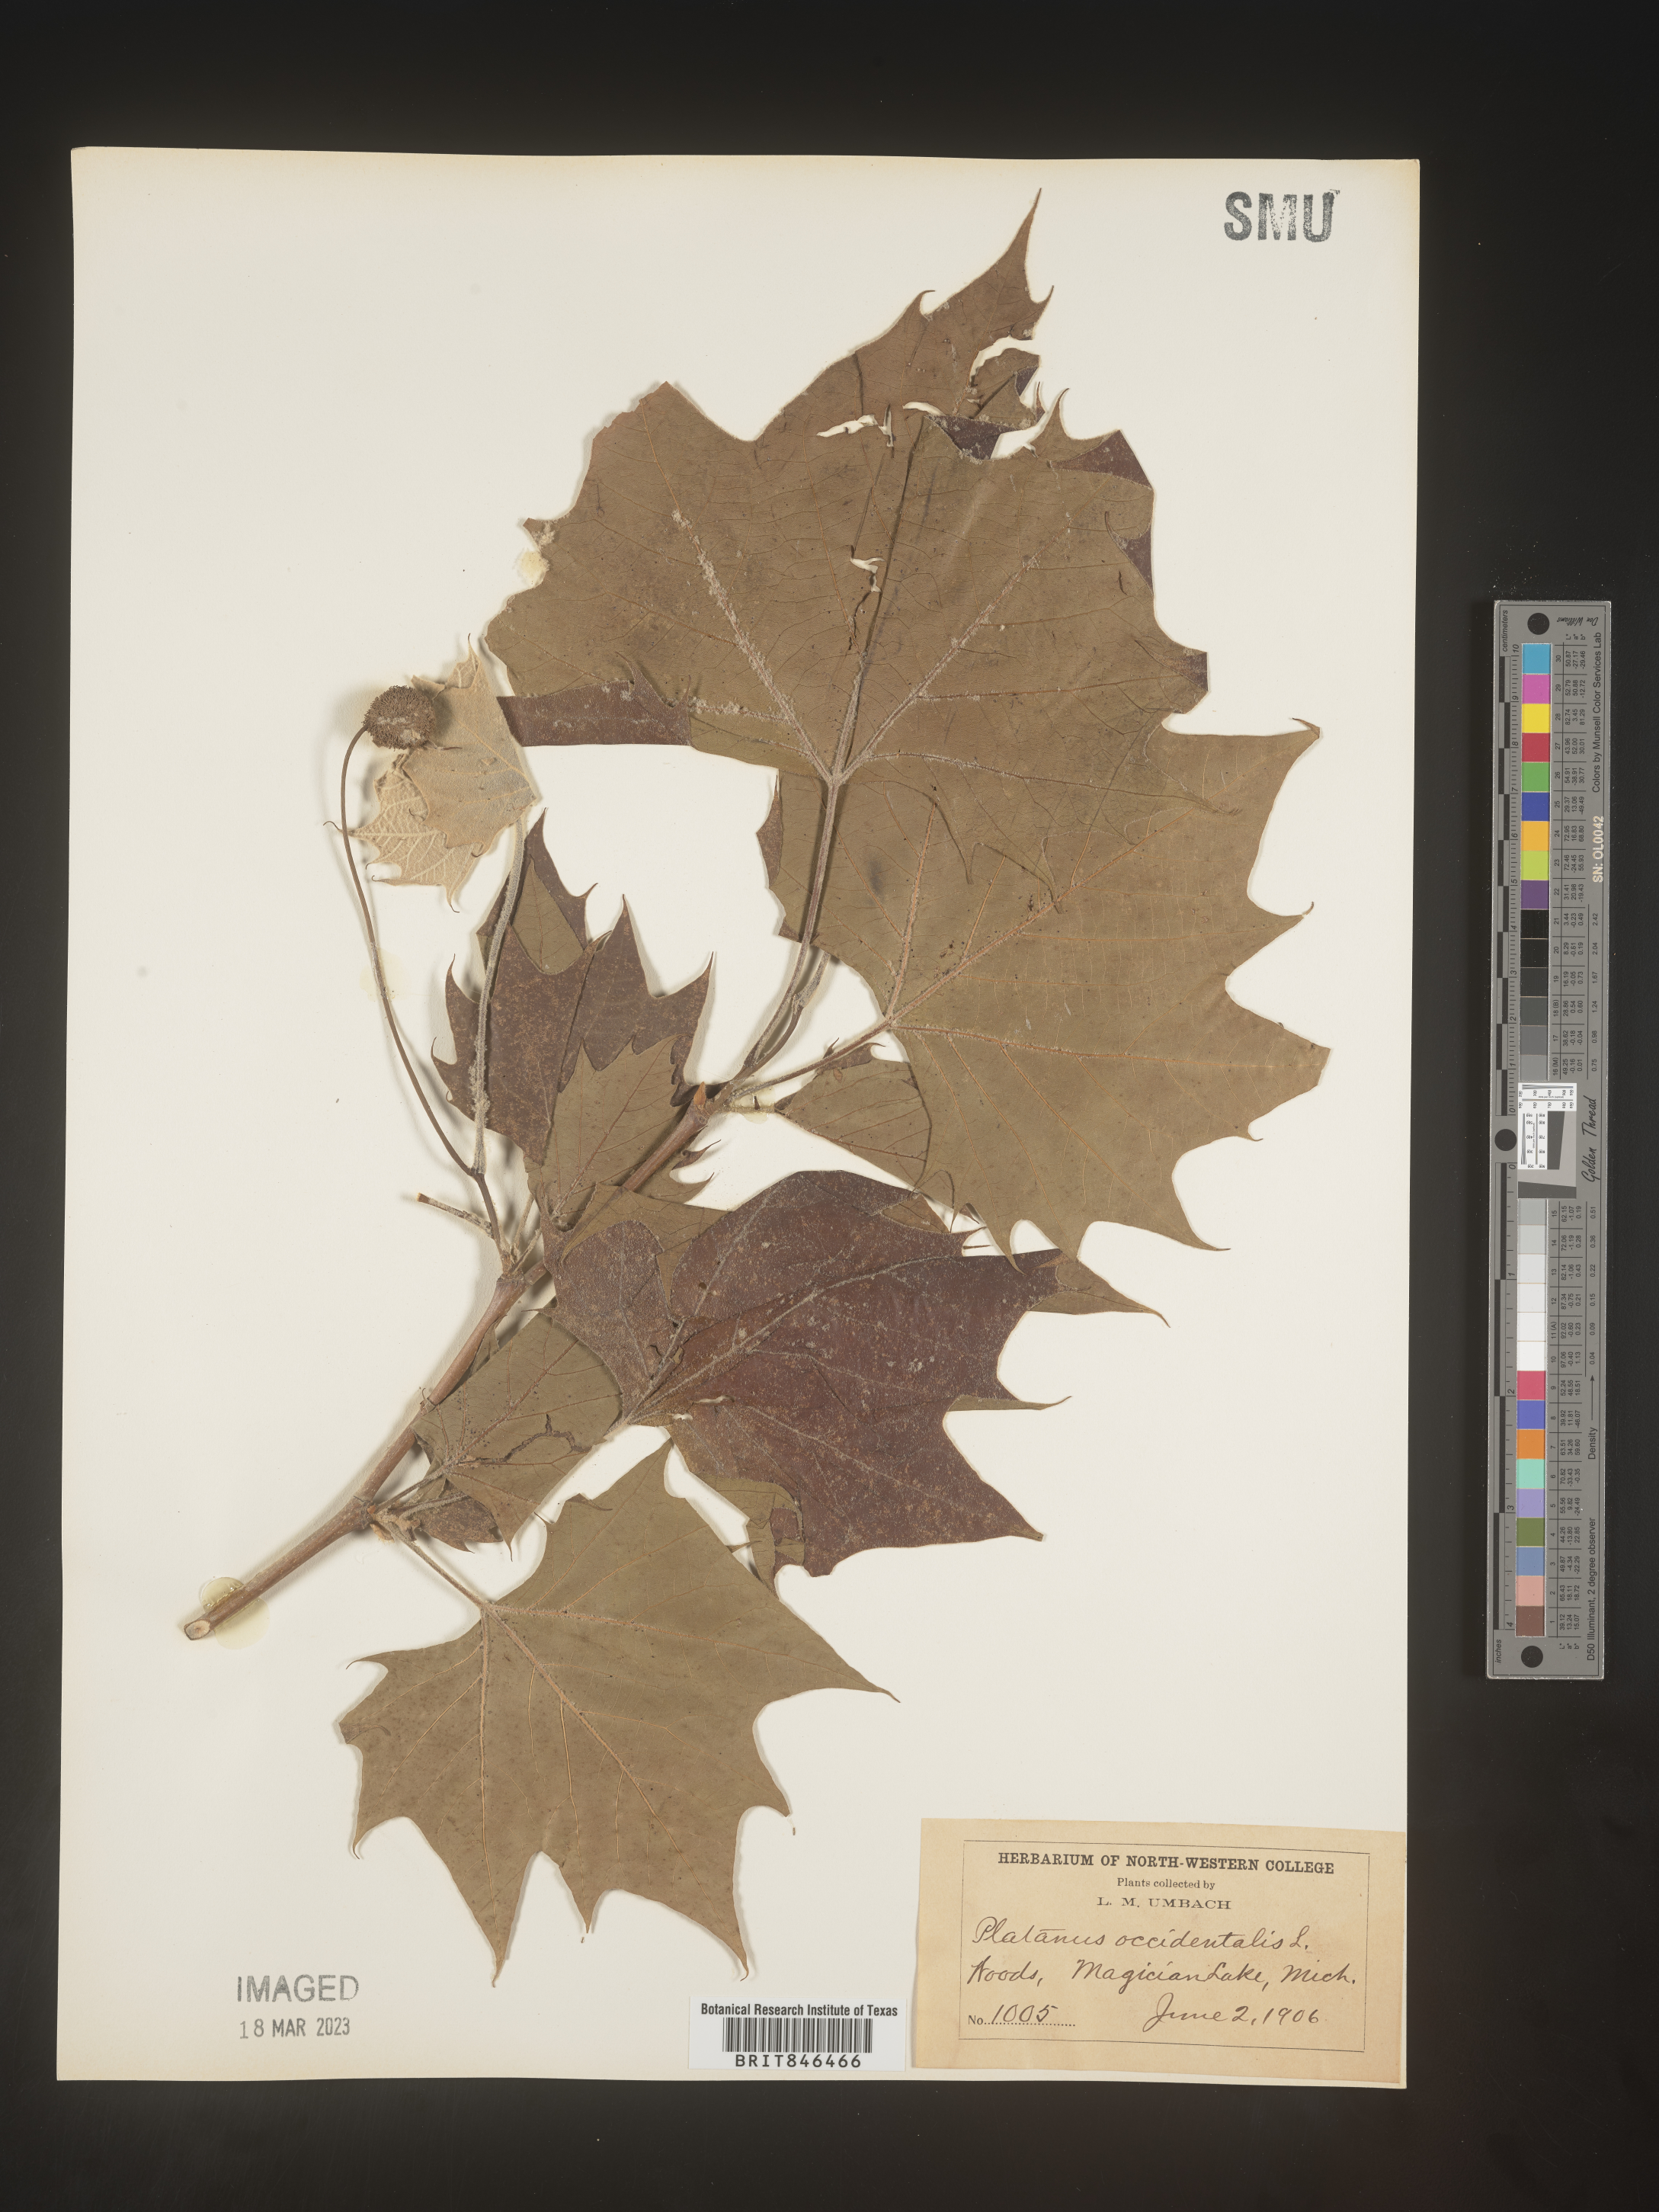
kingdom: Plantae
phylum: Tracheophyta
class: Magnoliopsida
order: Proteales
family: Platanaceae
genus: Platanus
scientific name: Platanus occidentalis
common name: American sycamore
